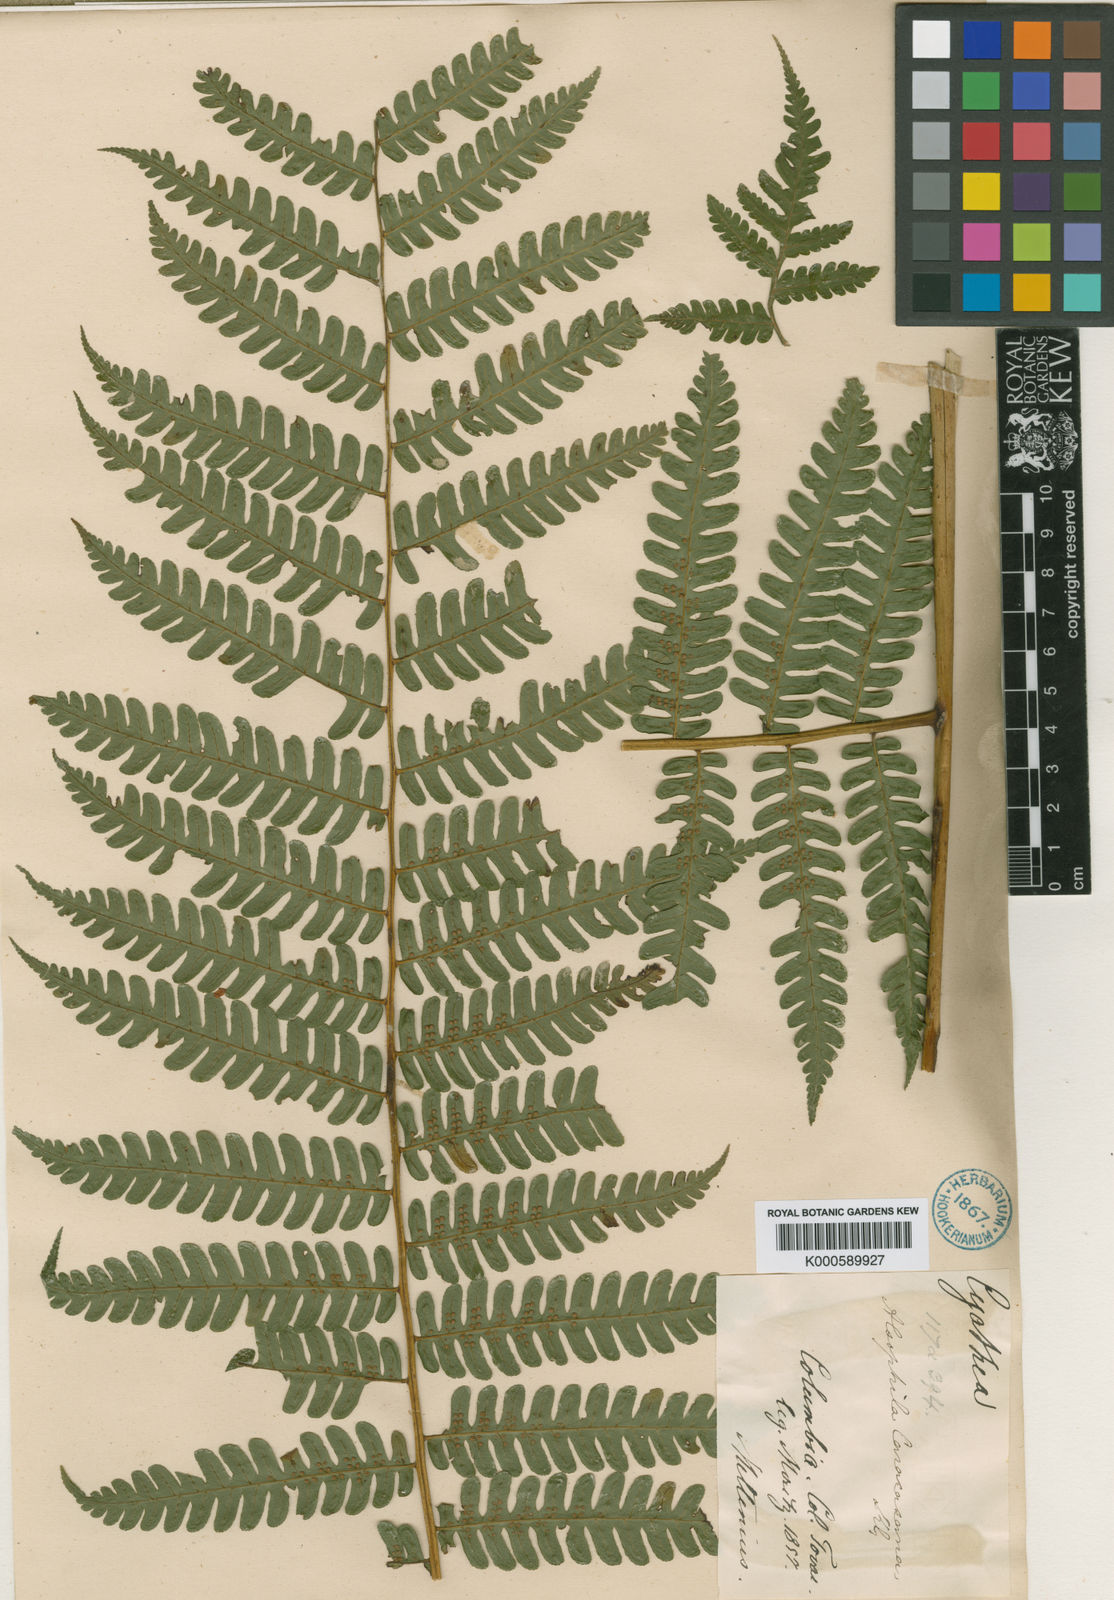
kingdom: Plantae
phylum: Tracheophyta
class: Polypodiopsida
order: Cyatheales
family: Cyatheaceae
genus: Cyathea
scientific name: Cyathea caracasana
